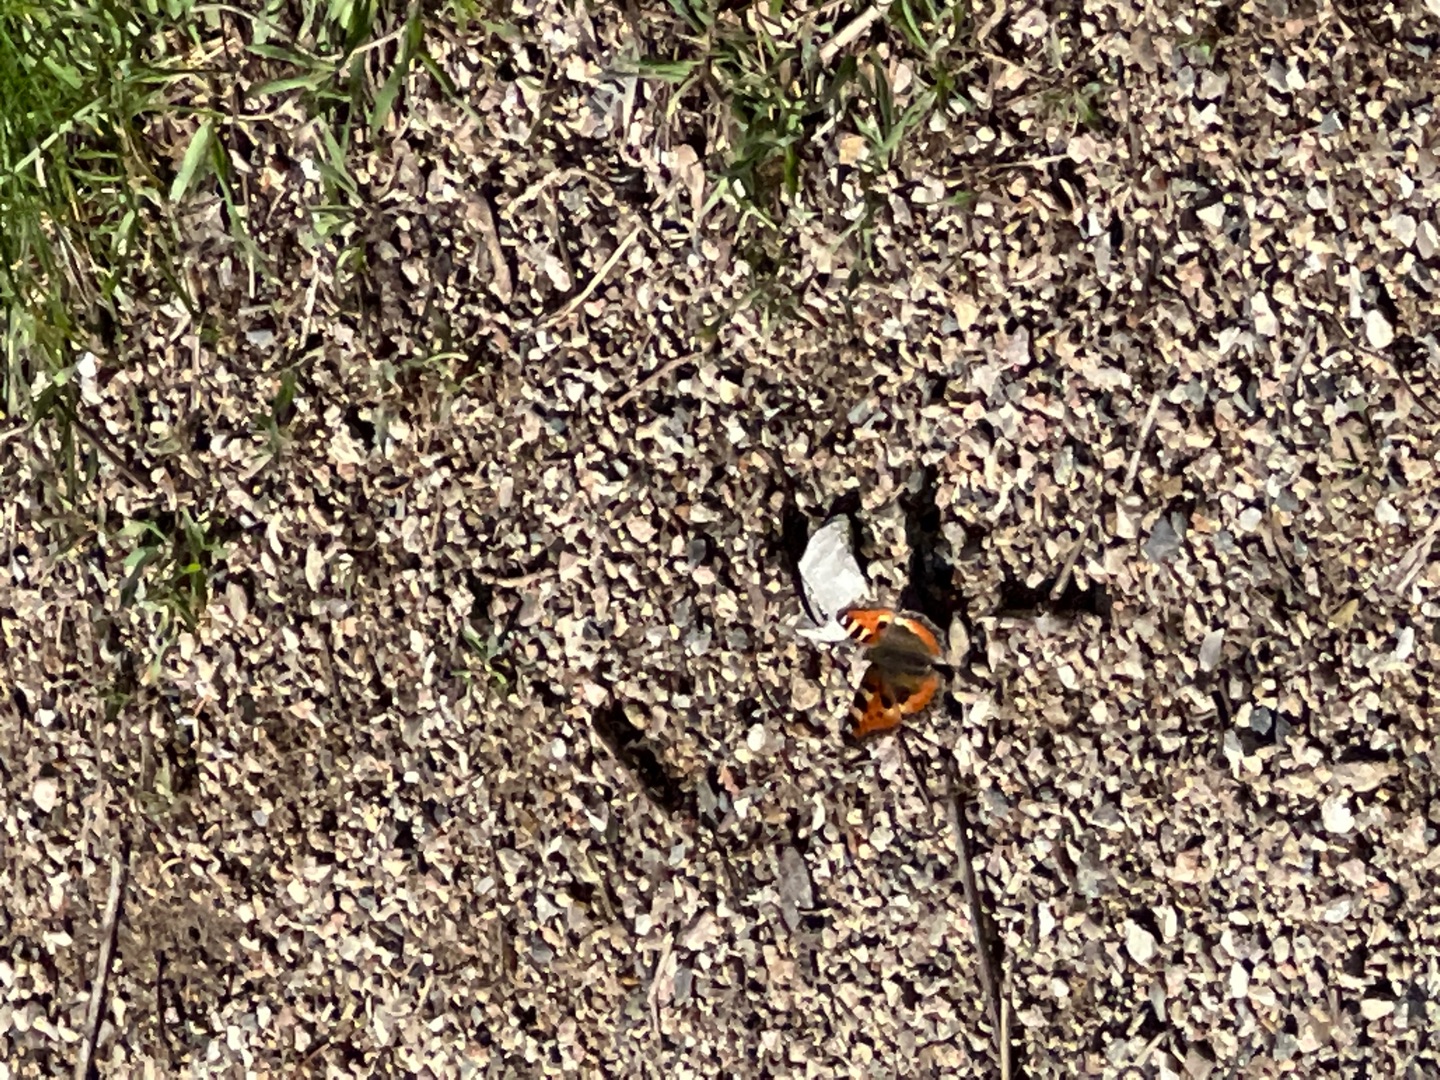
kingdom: Animalia
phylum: Arthropoda
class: Insecta
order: Lepidoptera
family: Nymphalidae
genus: Aglais
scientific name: Aglais urticae
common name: Nældens takvinge
